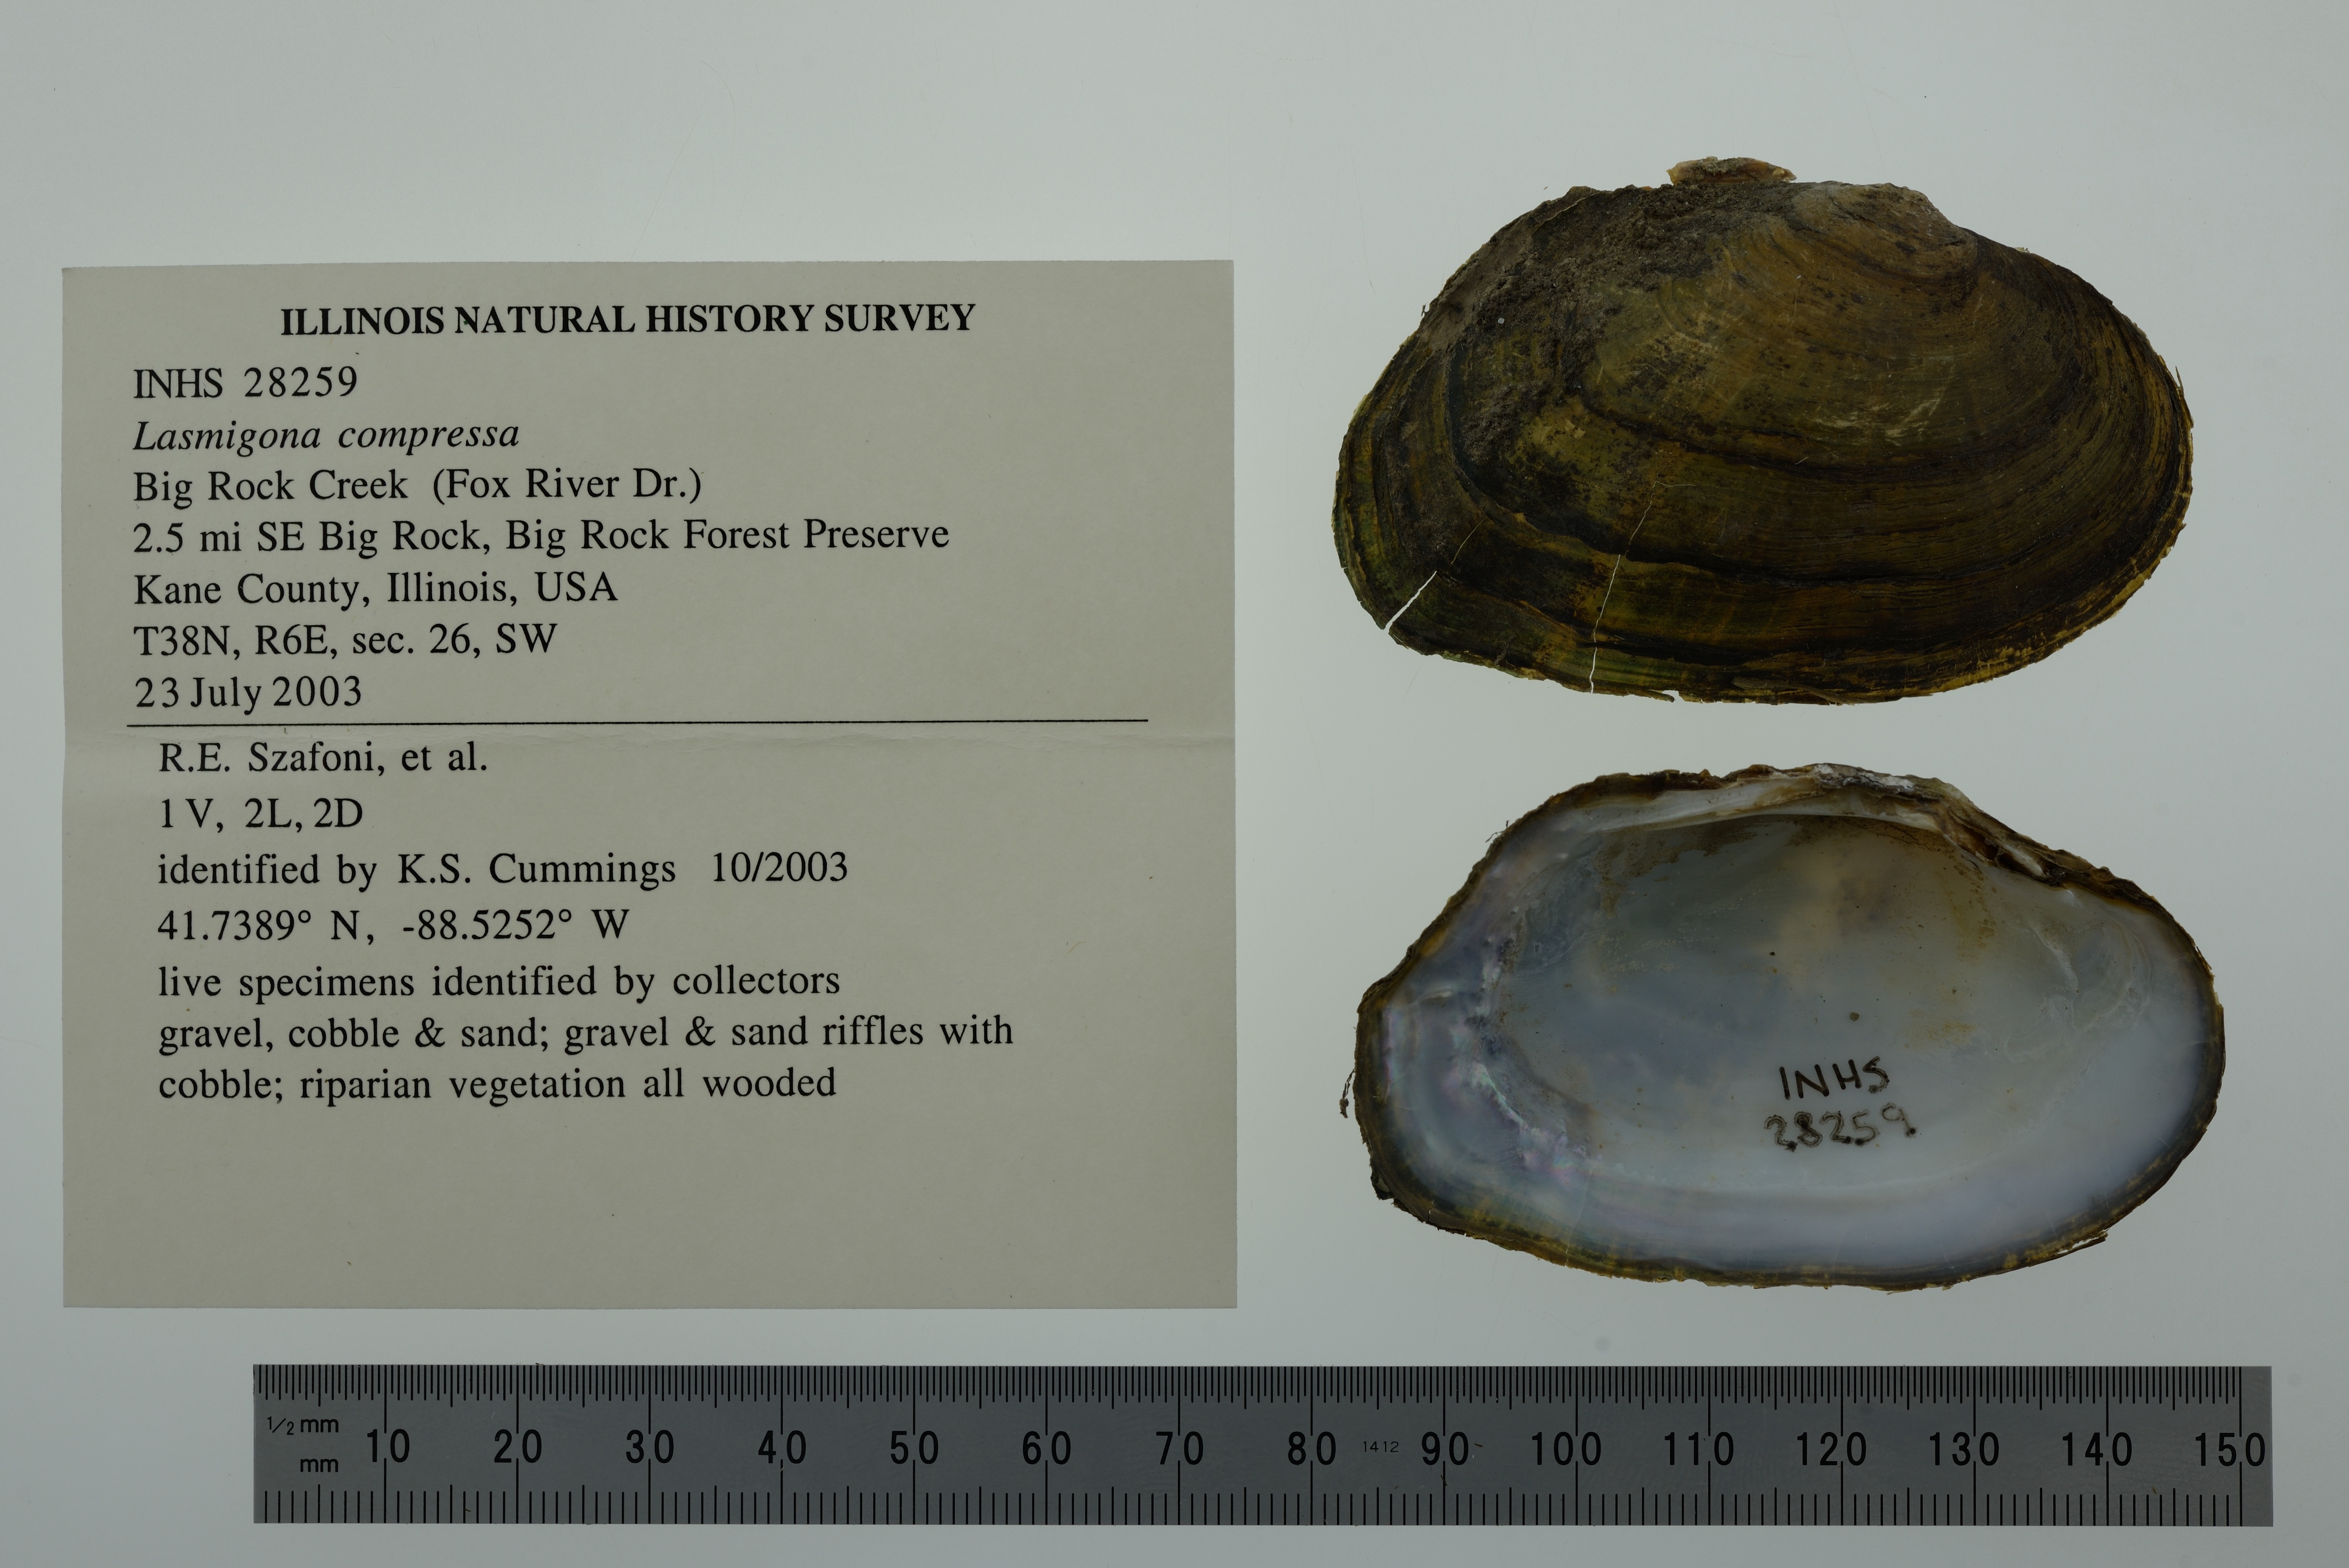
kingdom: Animalia
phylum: Mollusca
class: Gastropoda
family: Pachychilidae
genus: Pachychilus
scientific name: Pachychilus
